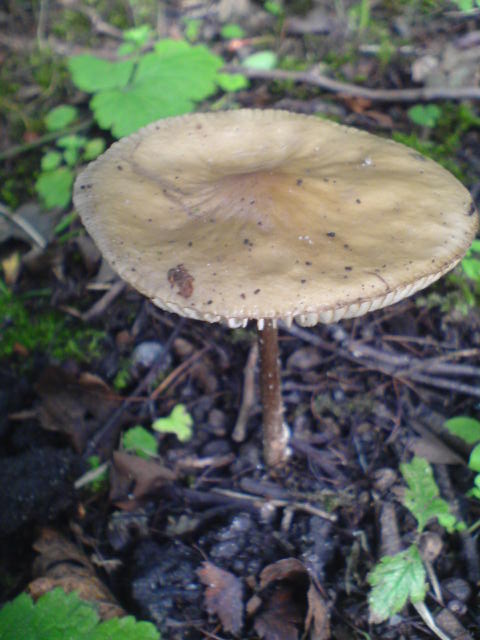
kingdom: Fungi
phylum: Basidiomycota
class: Agaricomycetes
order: Agaricales
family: Physalacriaceae
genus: Hymenopellis
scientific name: Hymenopellis radicata
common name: almindelig pælerodshat
